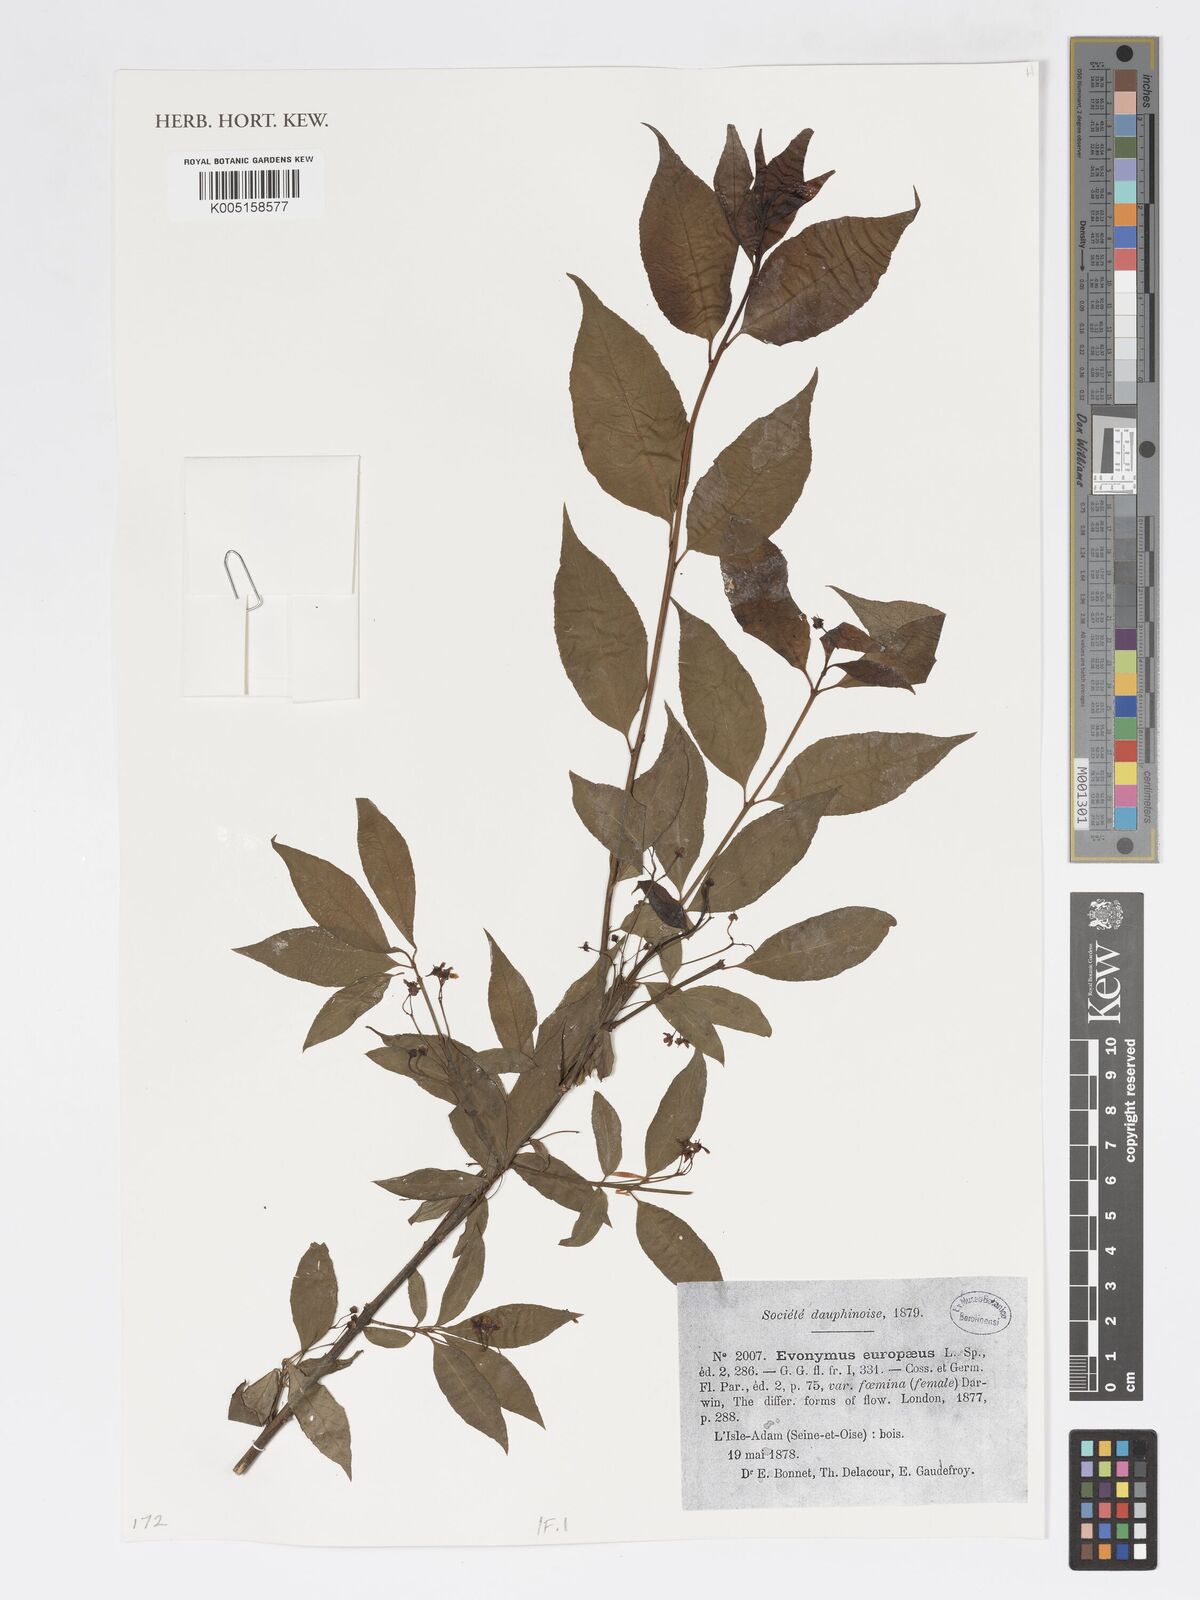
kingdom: Plantae
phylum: Tracheophyta
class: Magnoliopsida
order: Celastrales
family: Celastraceae
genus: Euonymus
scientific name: Euonymus europaeus
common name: Spindle
